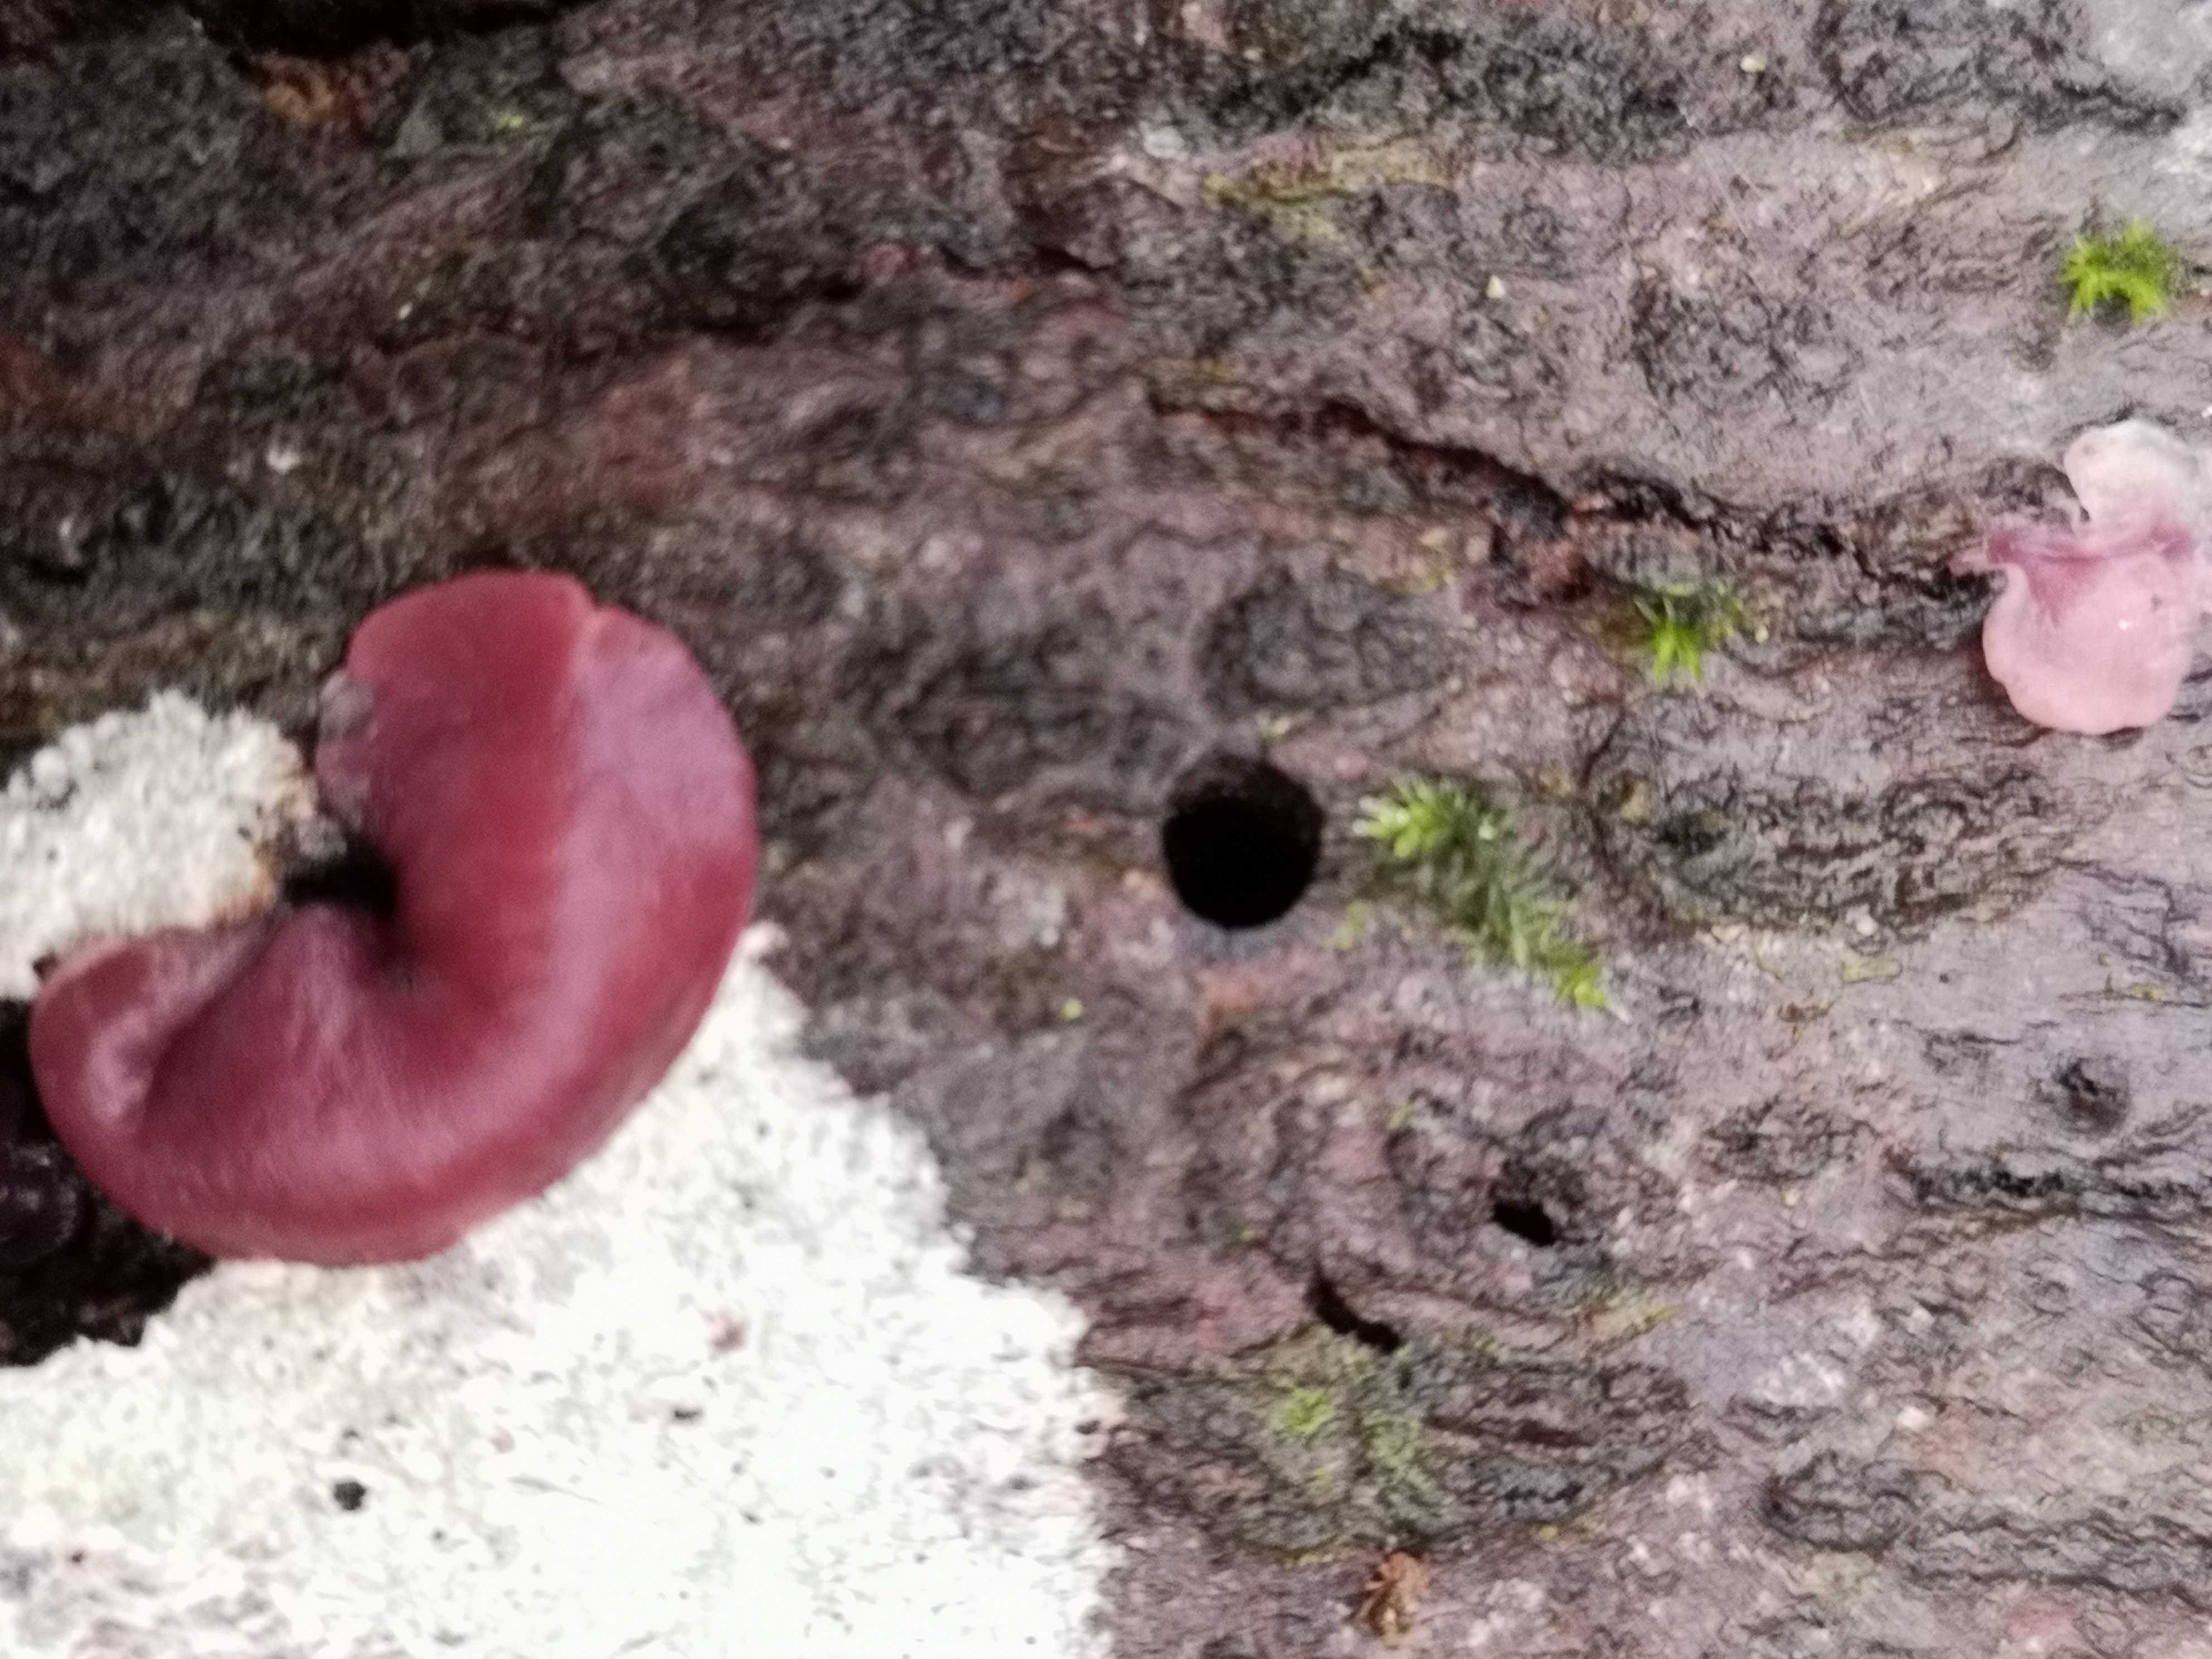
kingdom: Fungi
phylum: Ascomycota
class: Leotiomycetes
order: Helotiales
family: Gelatinodiscaceae
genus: Ascocoryne
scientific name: Ascocoryne cylichnium
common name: stor sejskive
